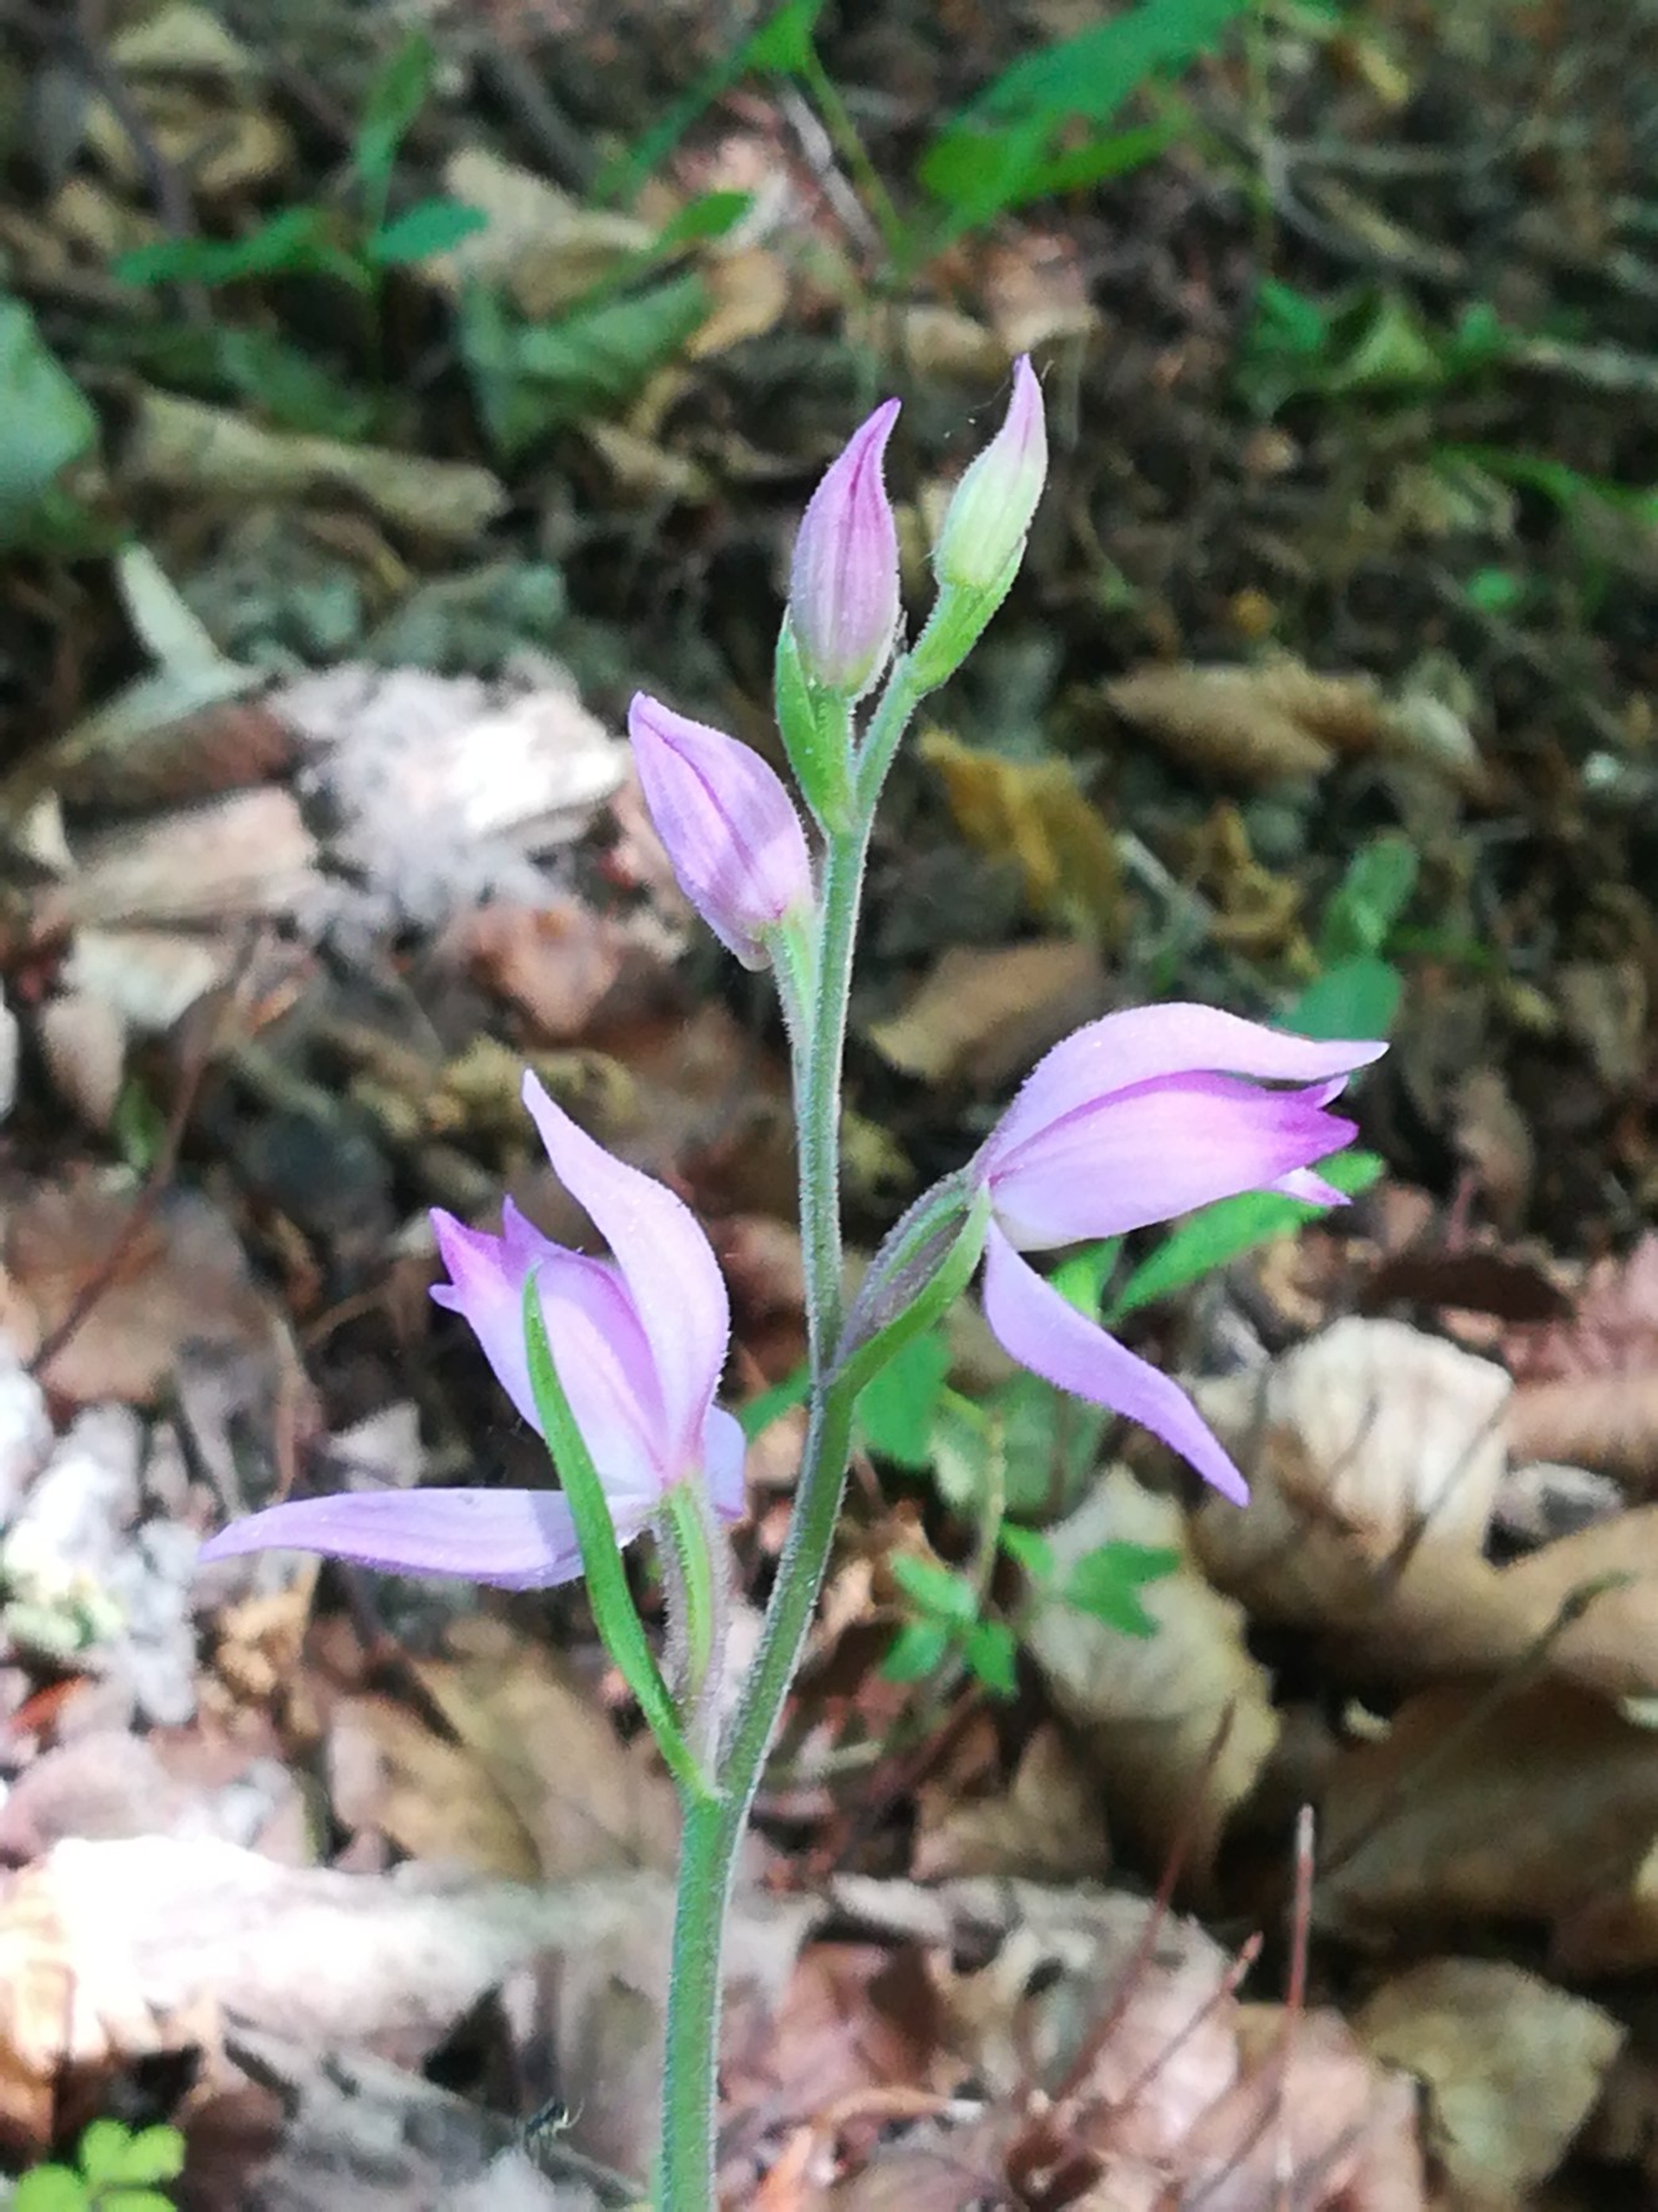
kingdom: Plantae
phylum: Tracheophyta
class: Liliopsida
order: Asparagales
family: Orchidaceae
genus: Cephalanthera
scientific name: Cephalanthera rubra
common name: Rød skovlilje
